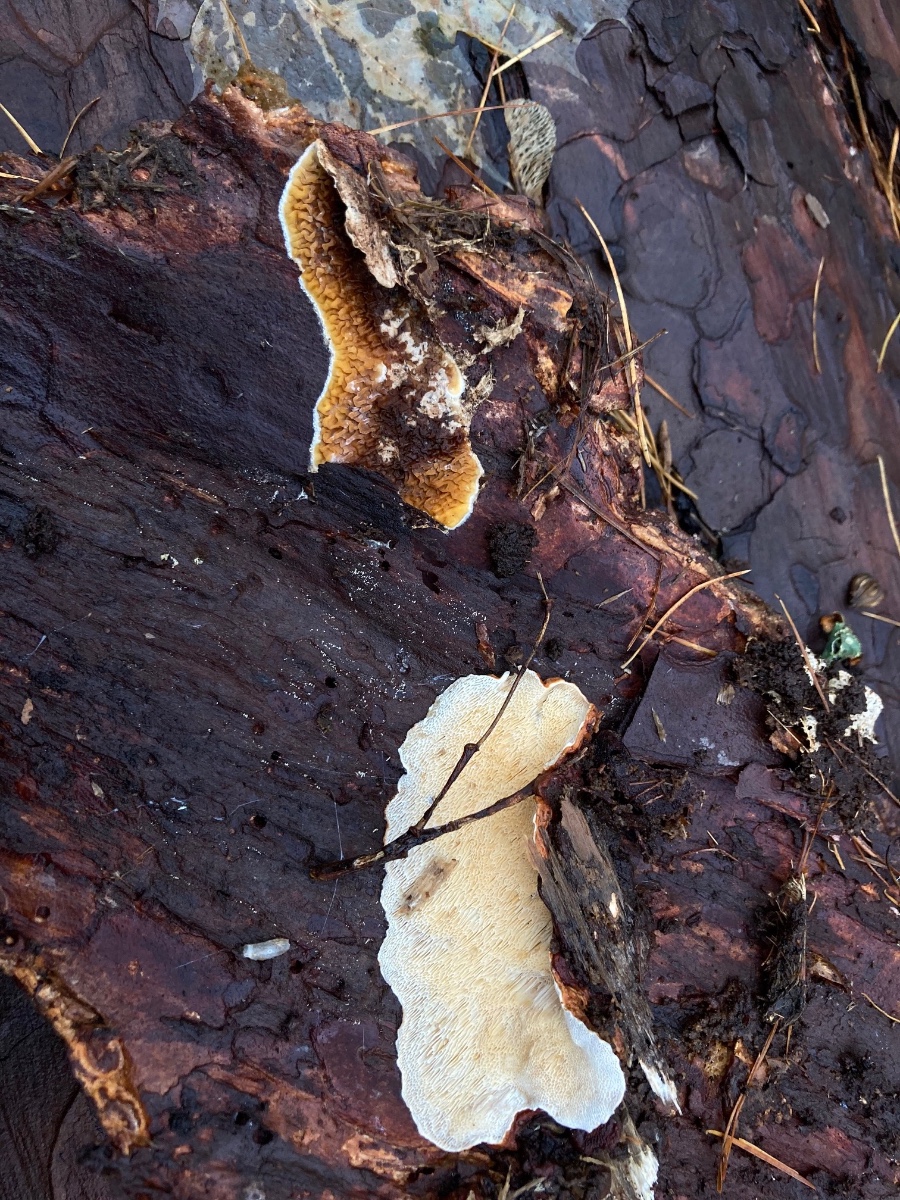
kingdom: Fungi
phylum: Basidiomycota
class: Agaricomycetes
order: Russulales
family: Bondarzewiaceae
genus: Heterobasidion
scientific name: Heterobasidion annosum
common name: almindelig rodfordærver
